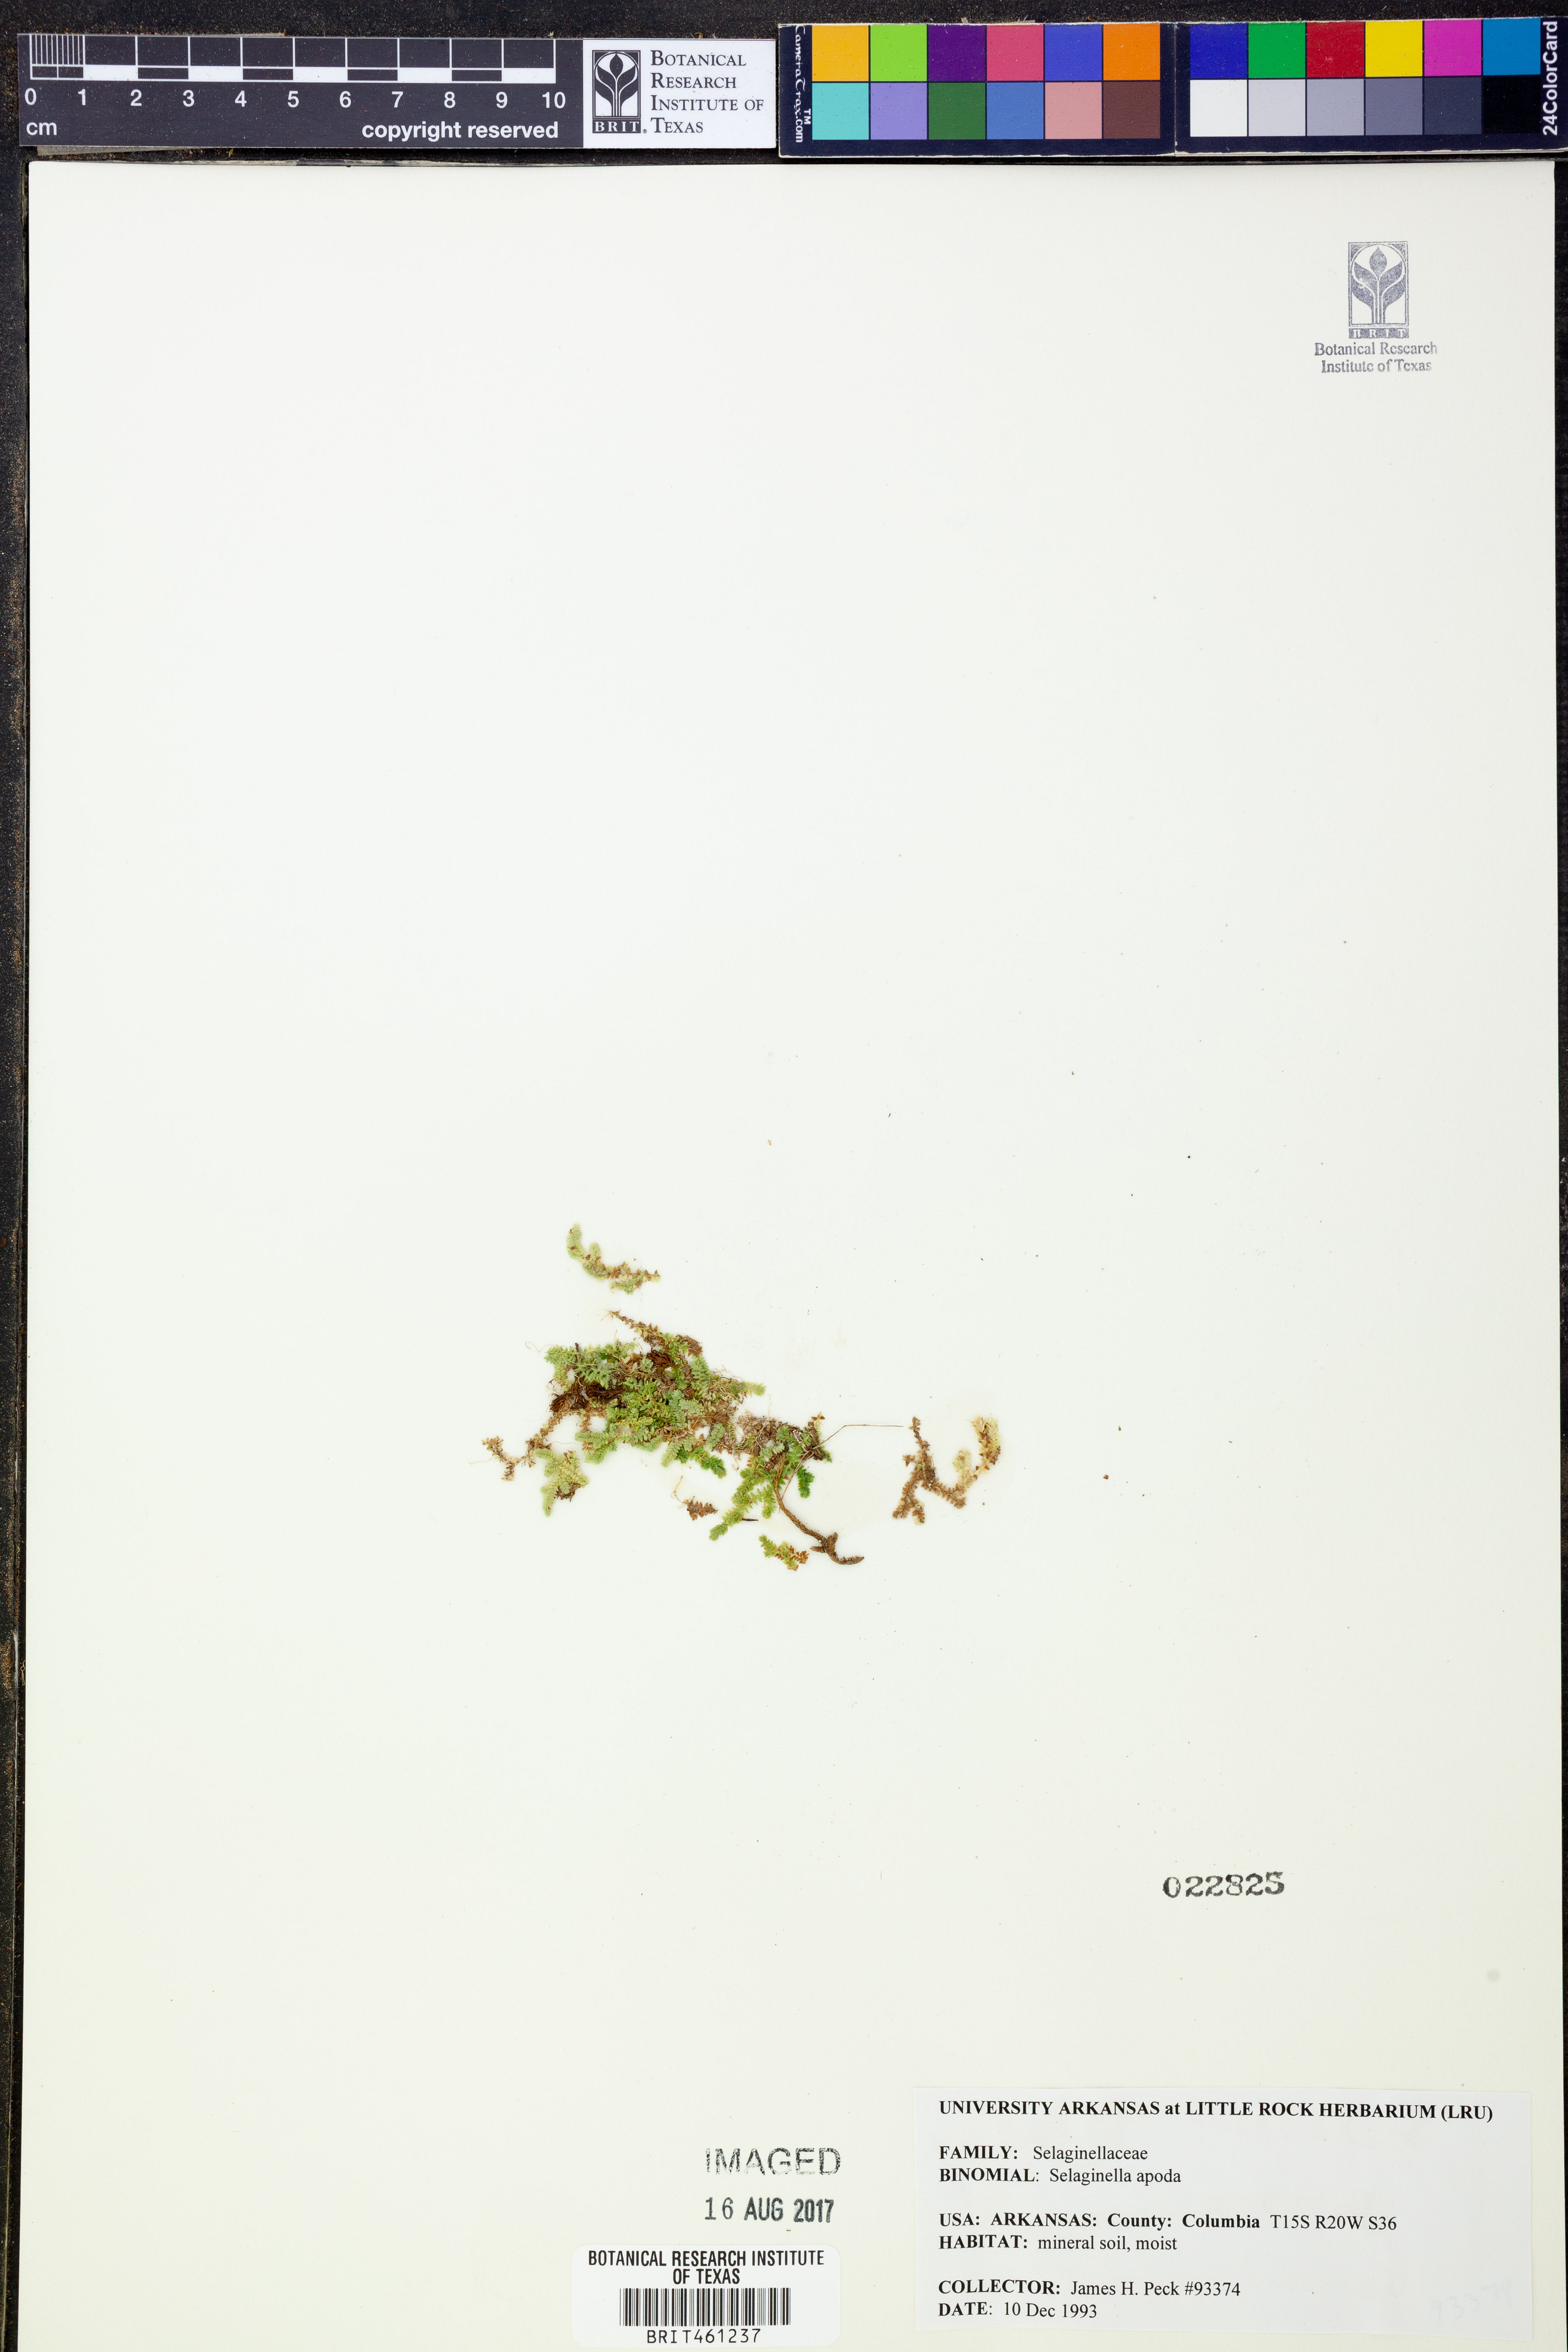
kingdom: Plantae
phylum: Tracheophyta
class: Lycopodiopsida
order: Selaginellales
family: Selaginellaceae
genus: Selaginella
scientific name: Selaginella apoda
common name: Creeping spikemoss
